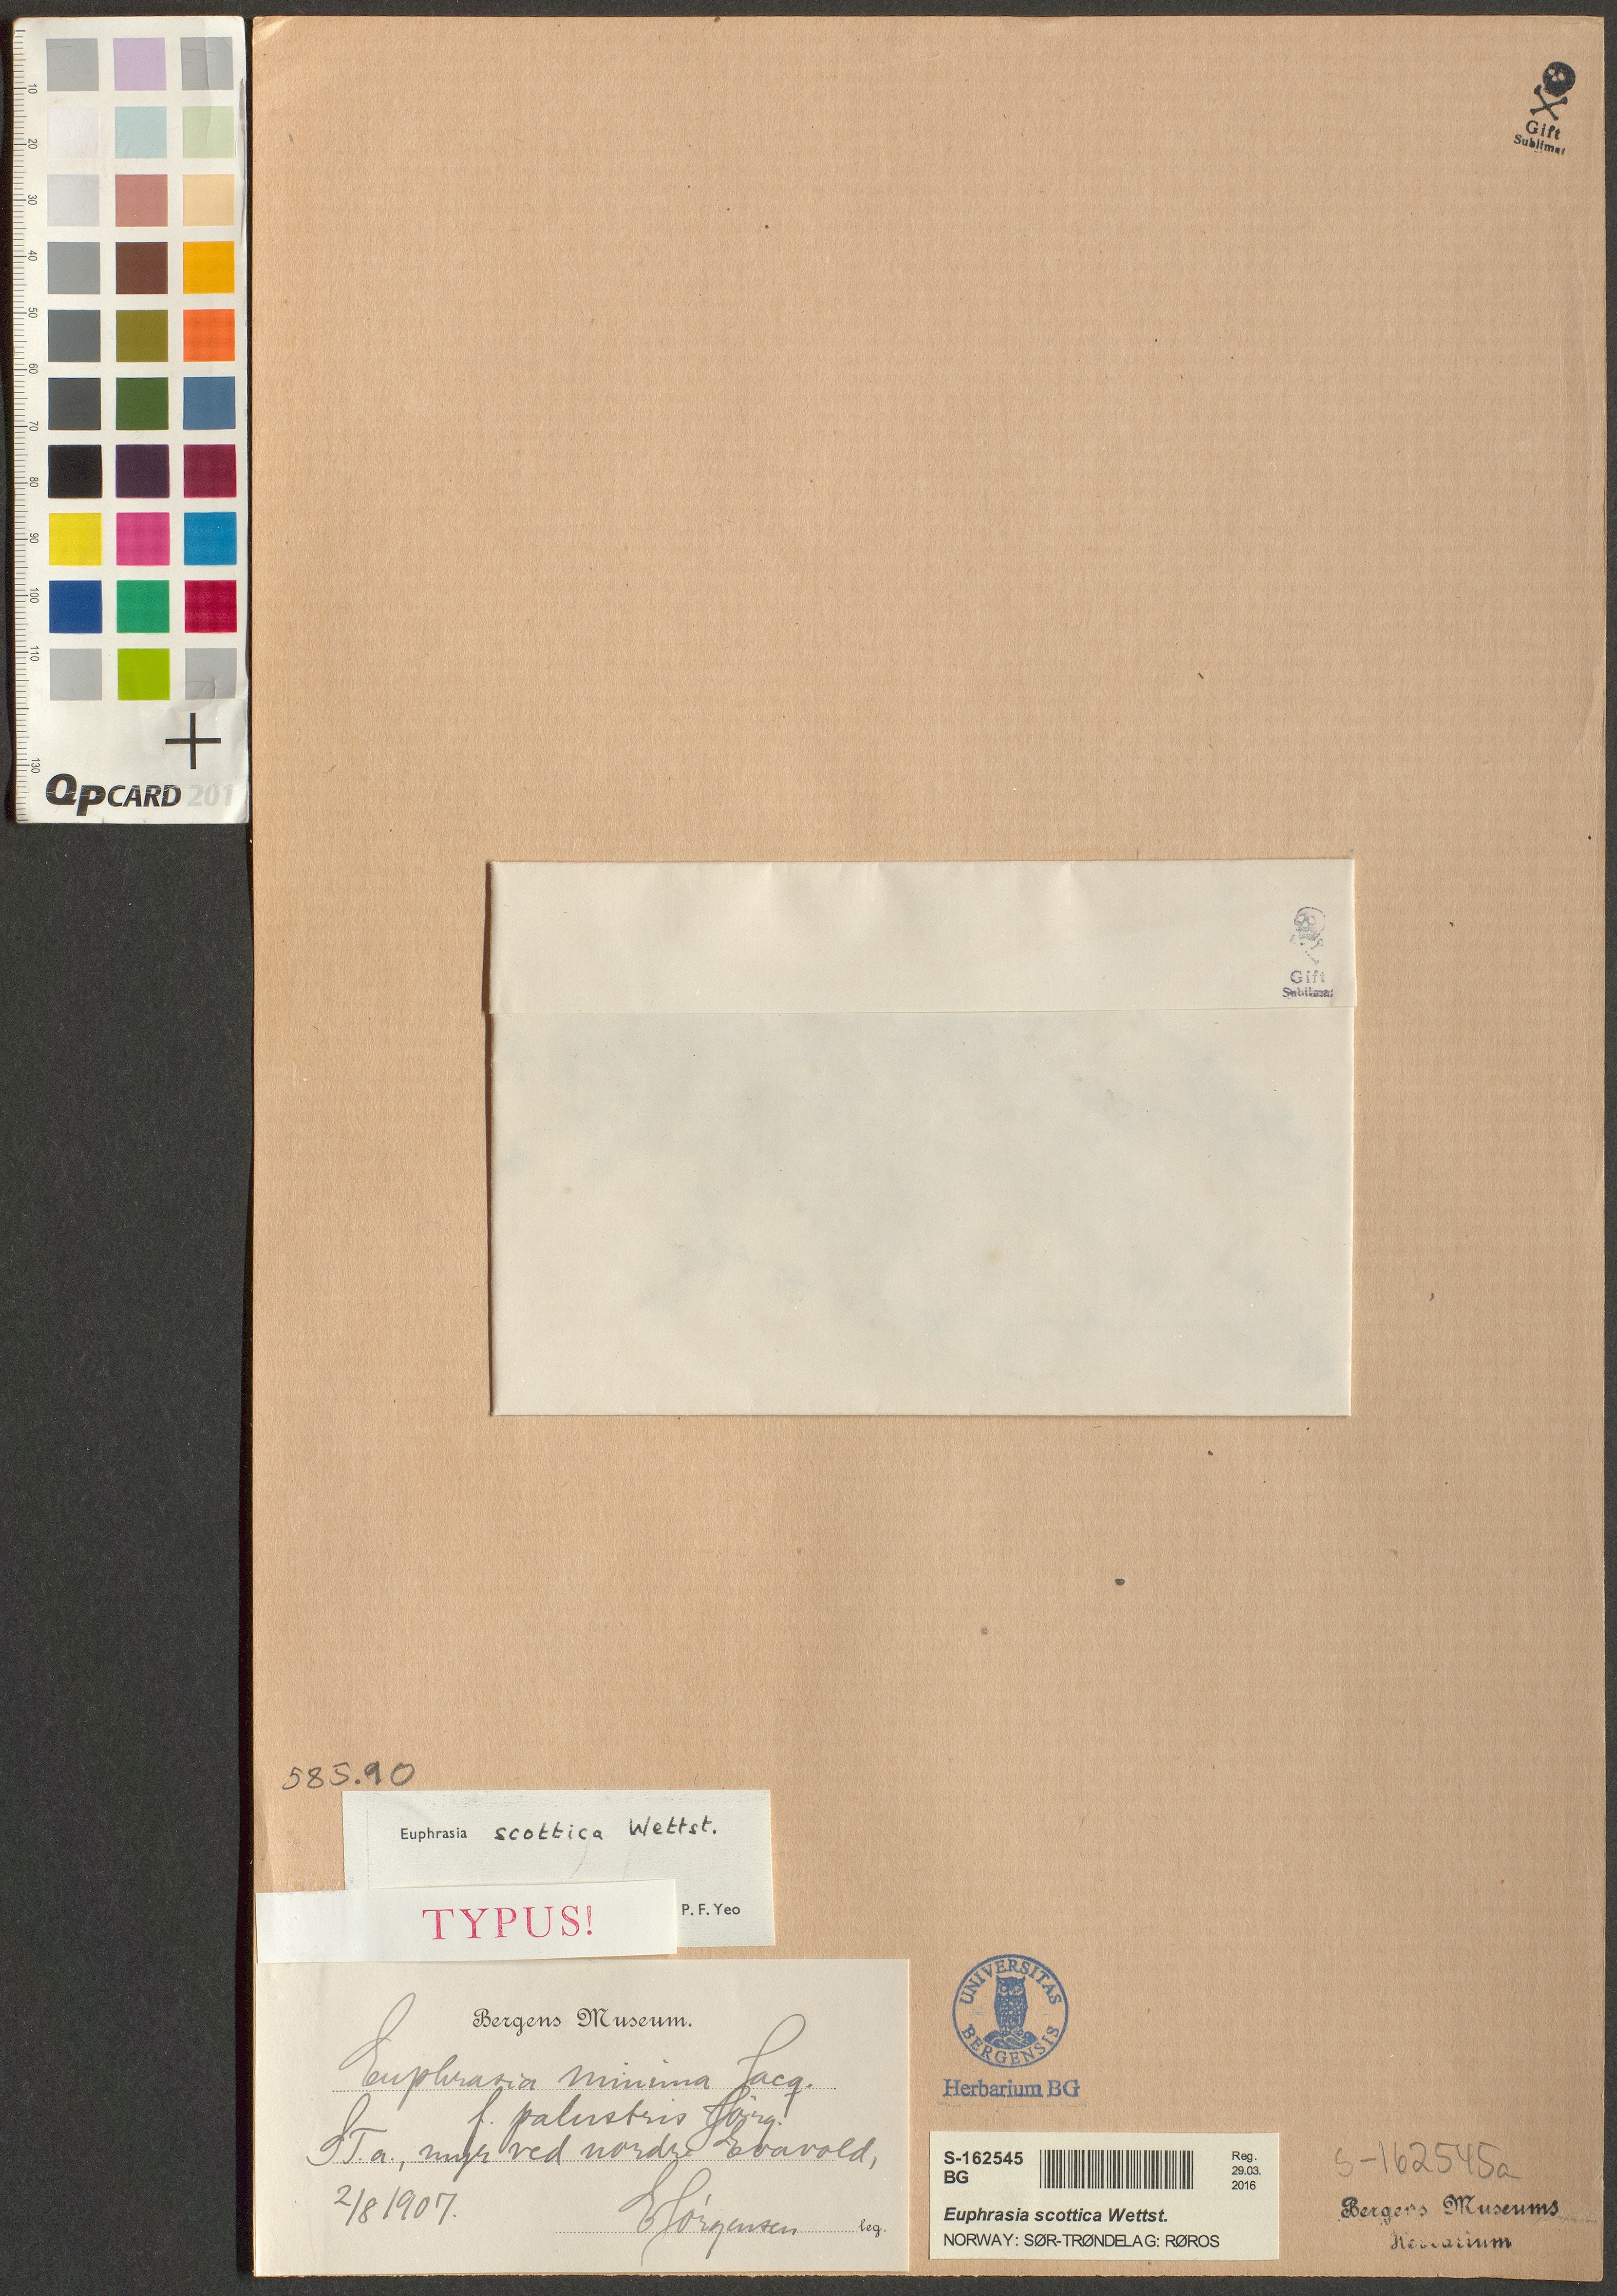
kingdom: Plantae
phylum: Tracheophyta
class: Magnoliopsida
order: Lamiales
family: Orobanchaceae
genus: Euphrasia
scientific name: Euphrasia scottica
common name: Slender scottish eyebright
